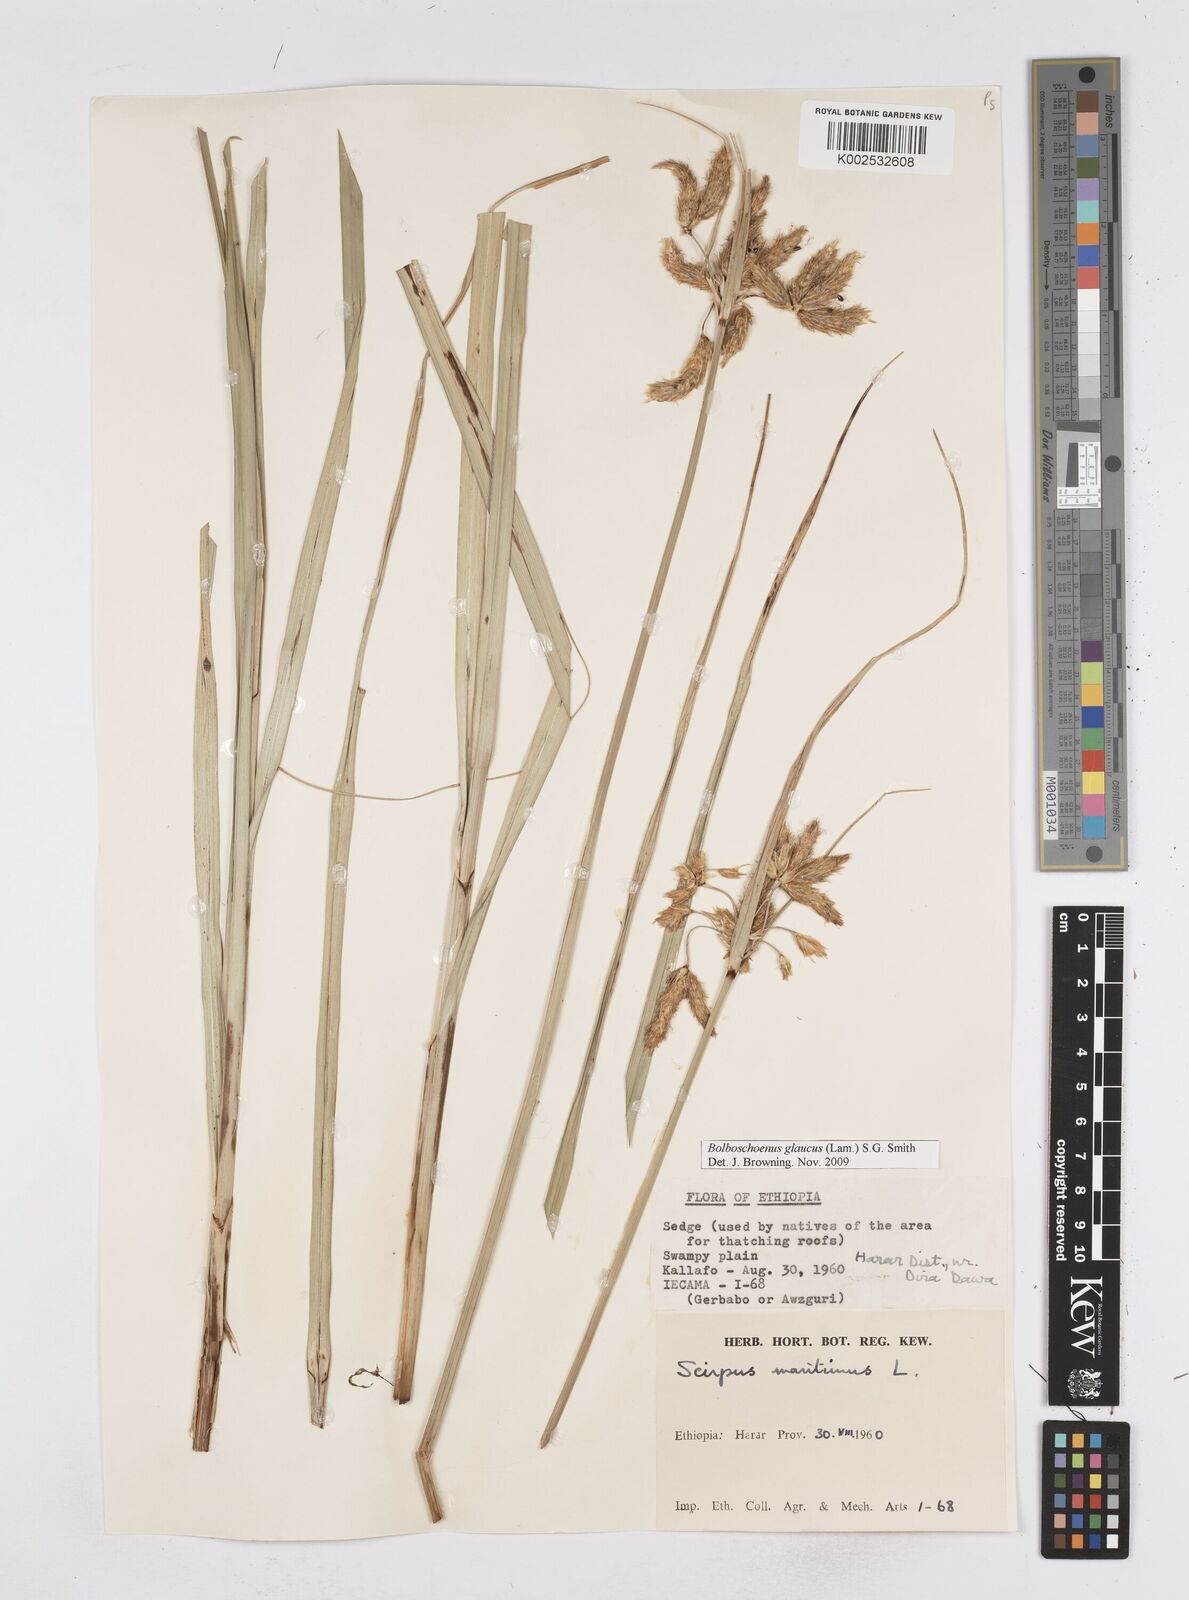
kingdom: Plantae
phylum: Tracheophyta
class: Liliopsida
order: Poales
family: Cyperaceae
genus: Bolboschoenus
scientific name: Bolboschoenus glaucus
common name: Tuberous bulrush
